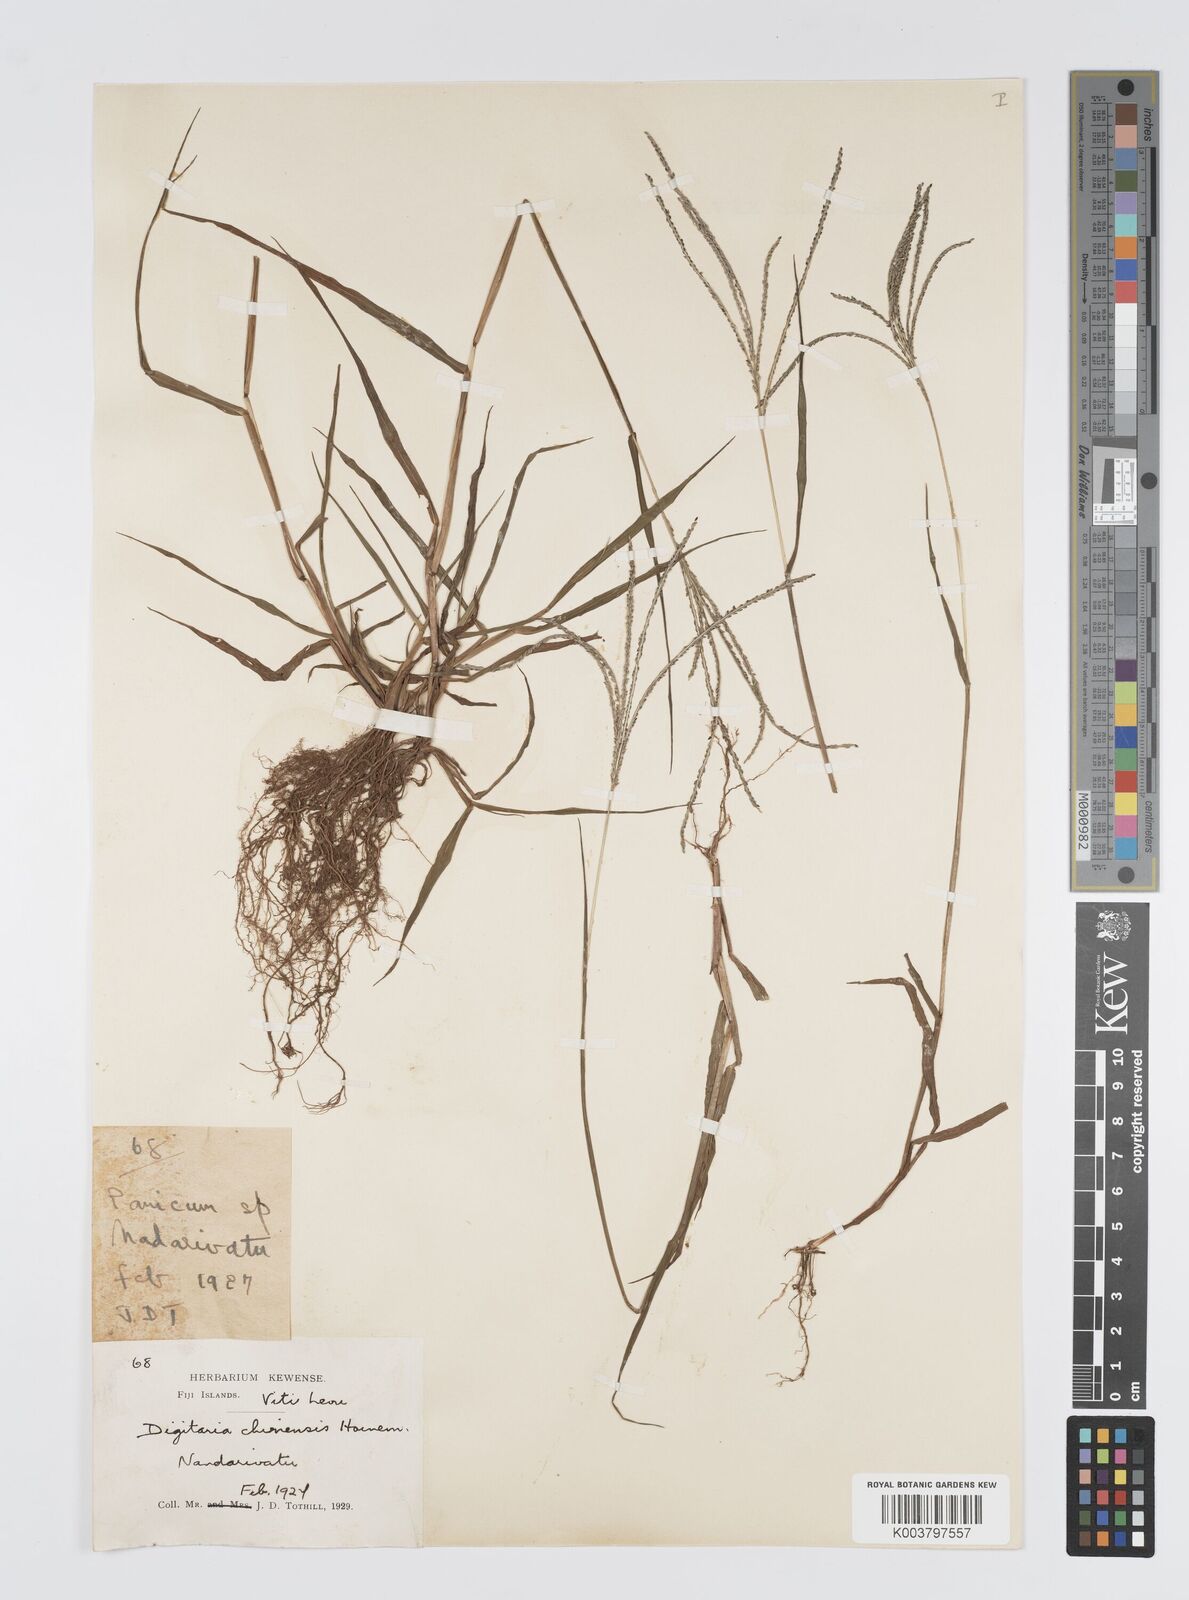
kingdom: Plantae
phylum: Tracheophyta
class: Liliopsida
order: Poales
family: Poaceae
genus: Digitaria
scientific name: Digitaria violascens
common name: Violet crabgrass
